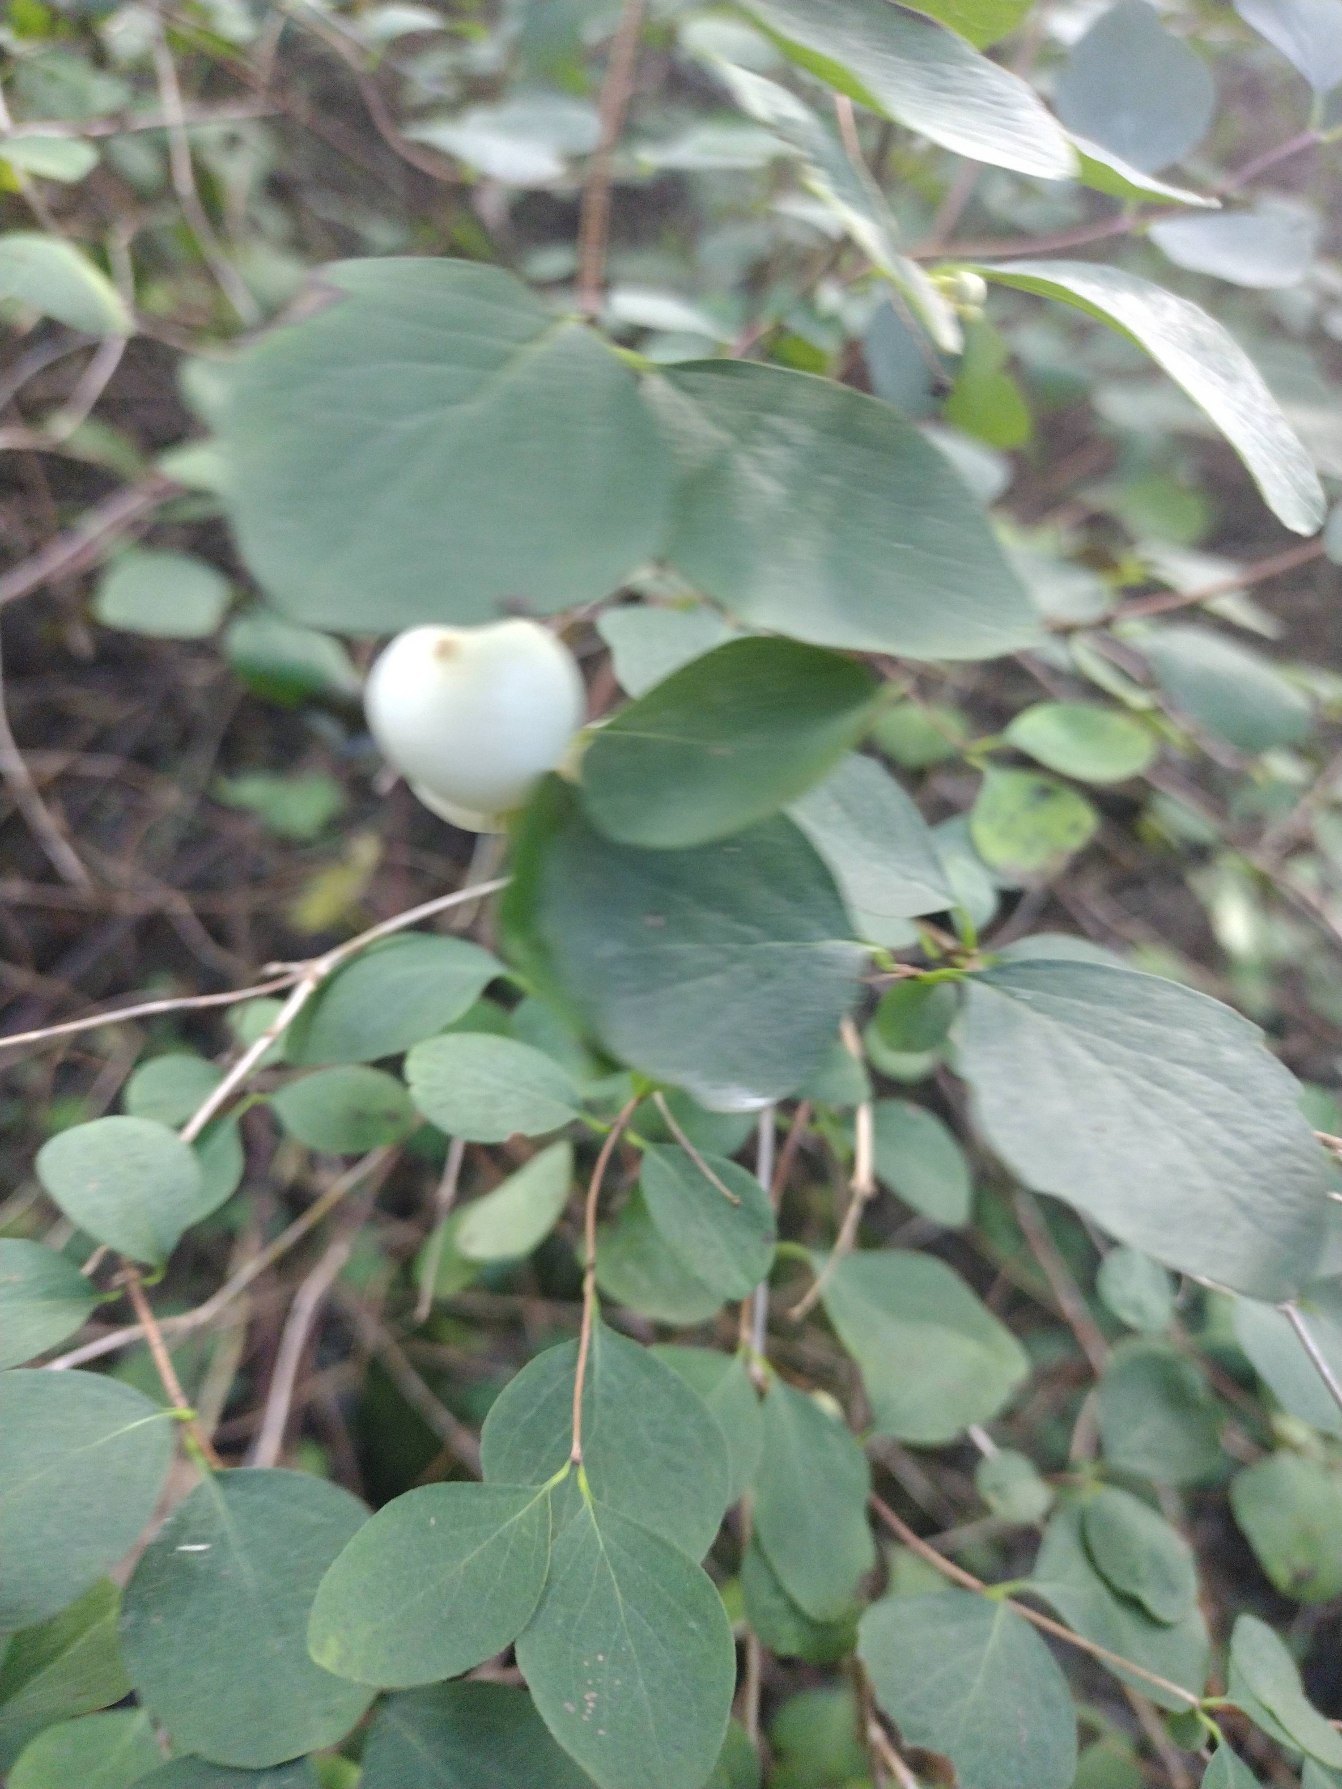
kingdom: Plantae
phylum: Tracheophyta
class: Magnoliopsida
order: Dipsacales
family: Caprifoliaceae
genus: Symphoricarpos
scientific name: Symphoricarpos albus
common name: Almindelig snebær
